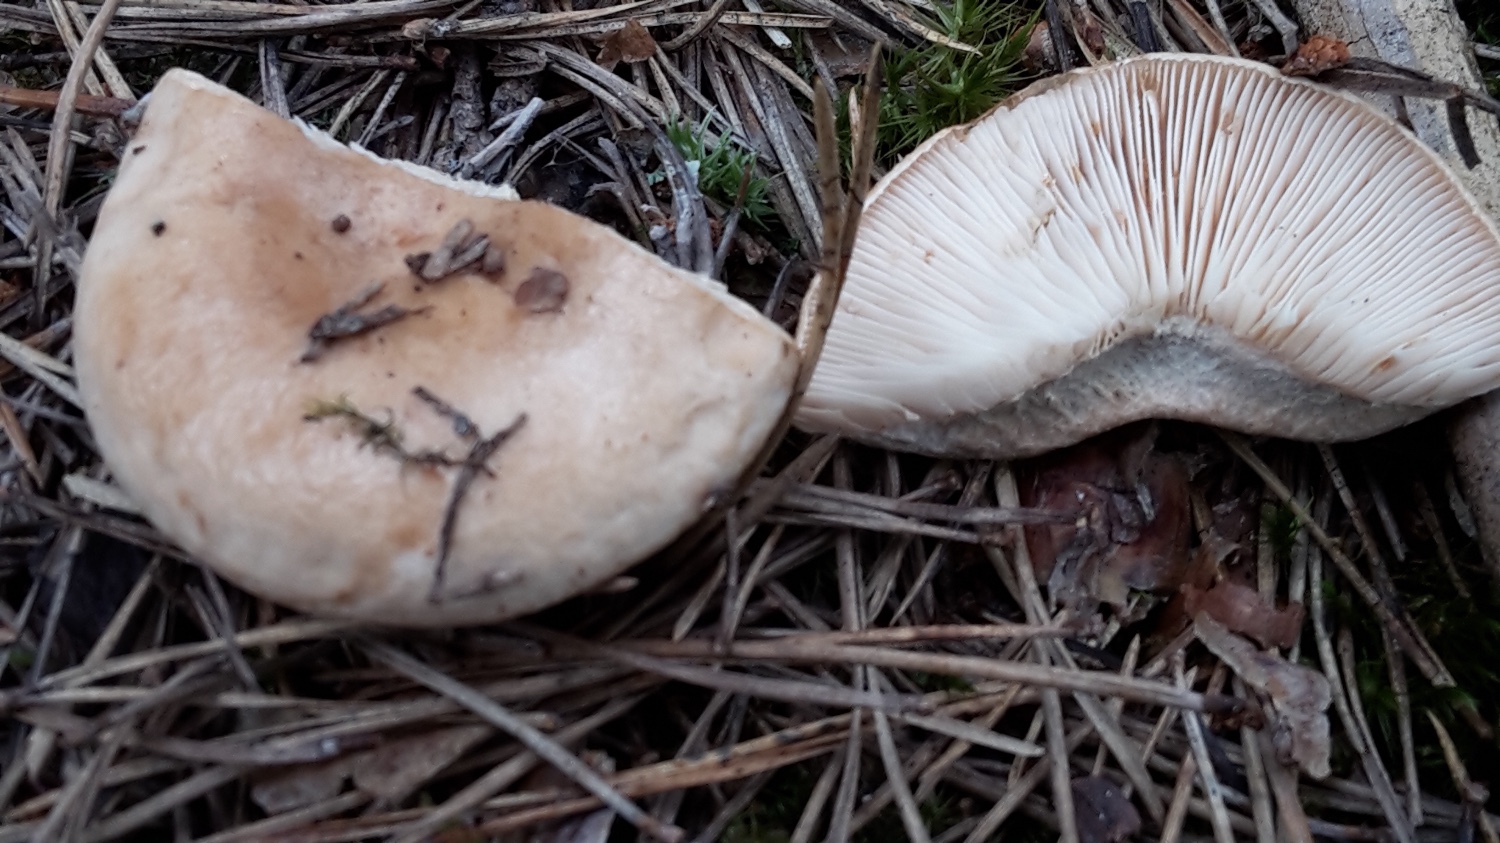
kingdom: Fungi
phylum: Basidiomycota
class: Agaricomycetes
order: Russulales
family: Russulaceae
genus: Lactarius
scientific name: Lactarius musteus
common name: elfenbens-mælkehat
